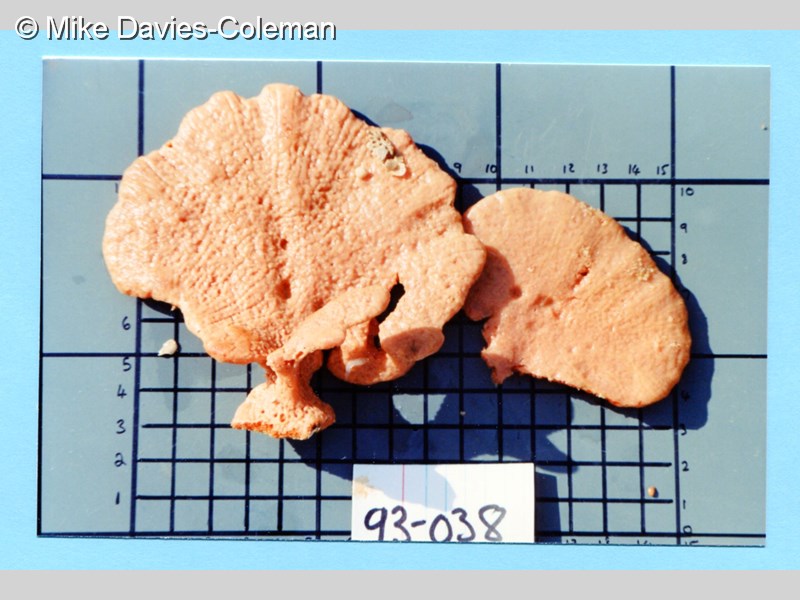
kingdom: Animalia
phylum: Porifera
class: Demospongiae
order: Suberitida
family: Halichondriidae
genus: Hymeniacidon
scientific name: Hymeniacidon
